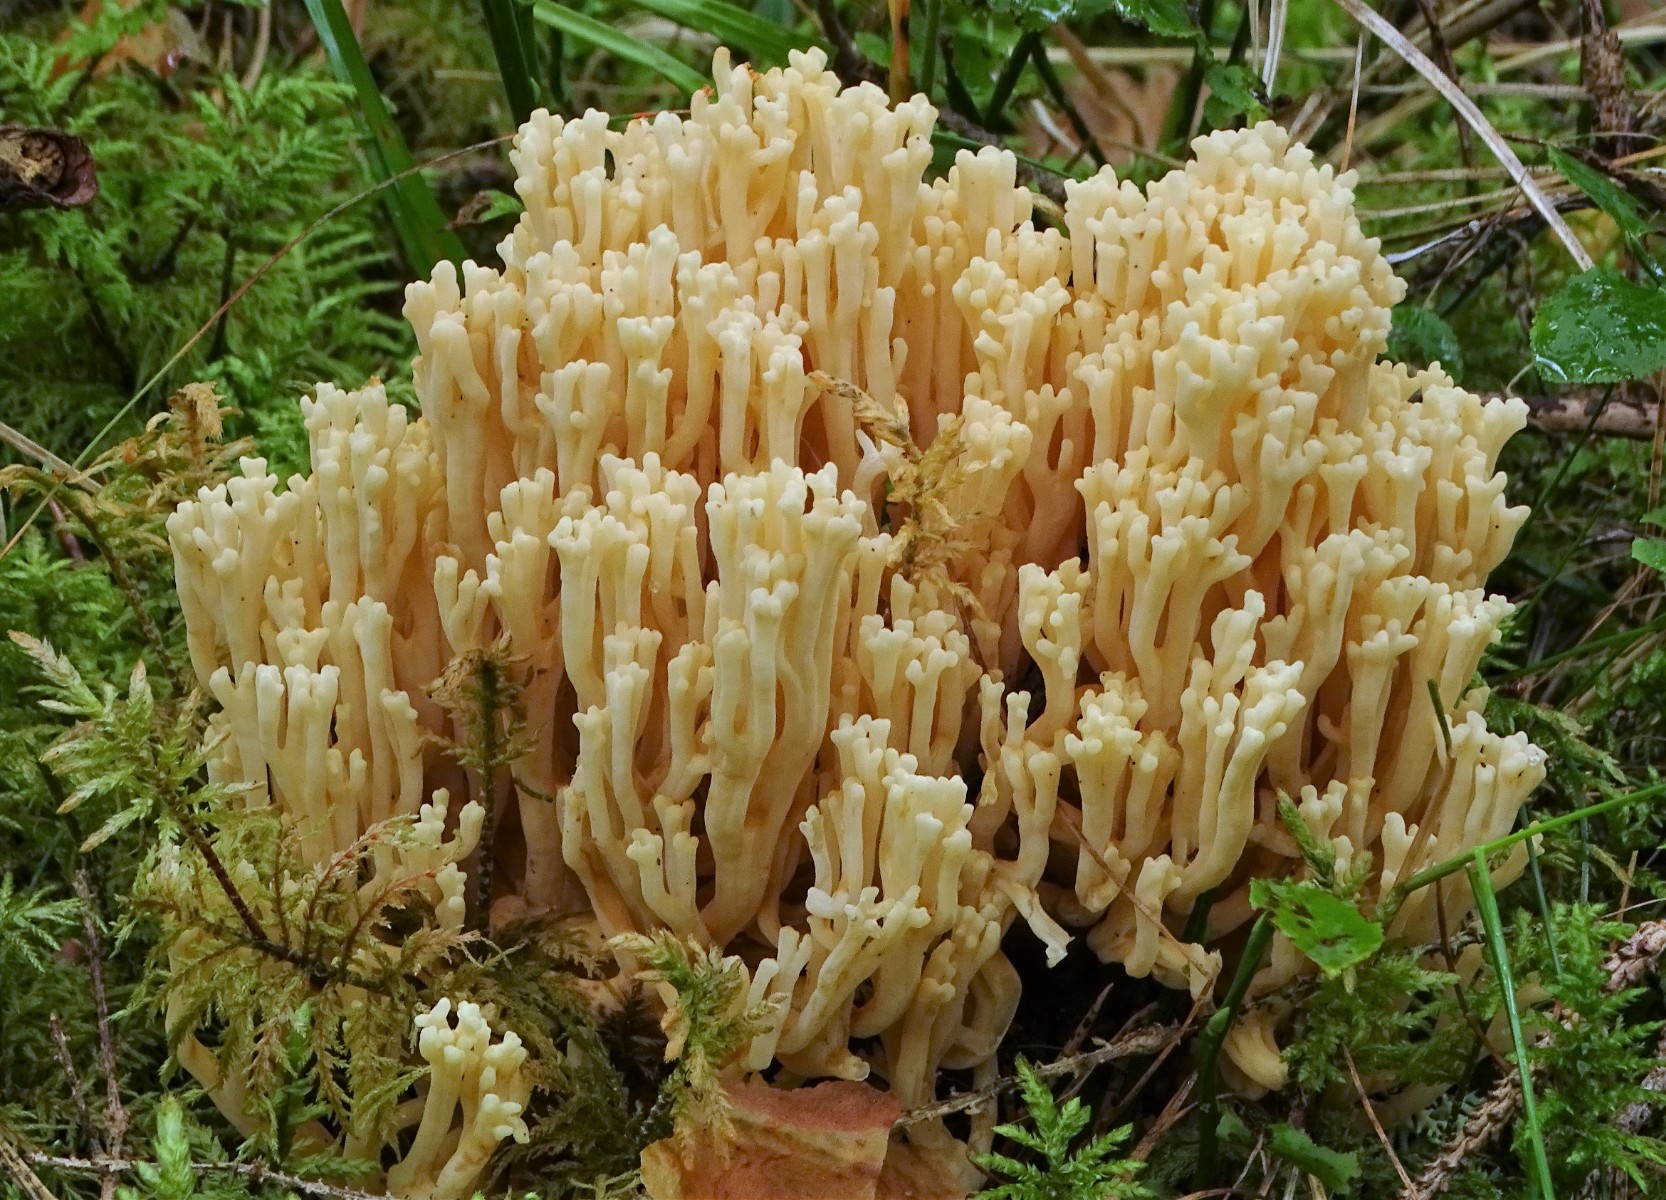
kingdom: Fungi
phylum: Basidiomycota
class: Agaricomycetes
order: Gomphales
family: Gomphaceae
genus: Ramaria
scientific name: Ramaria
